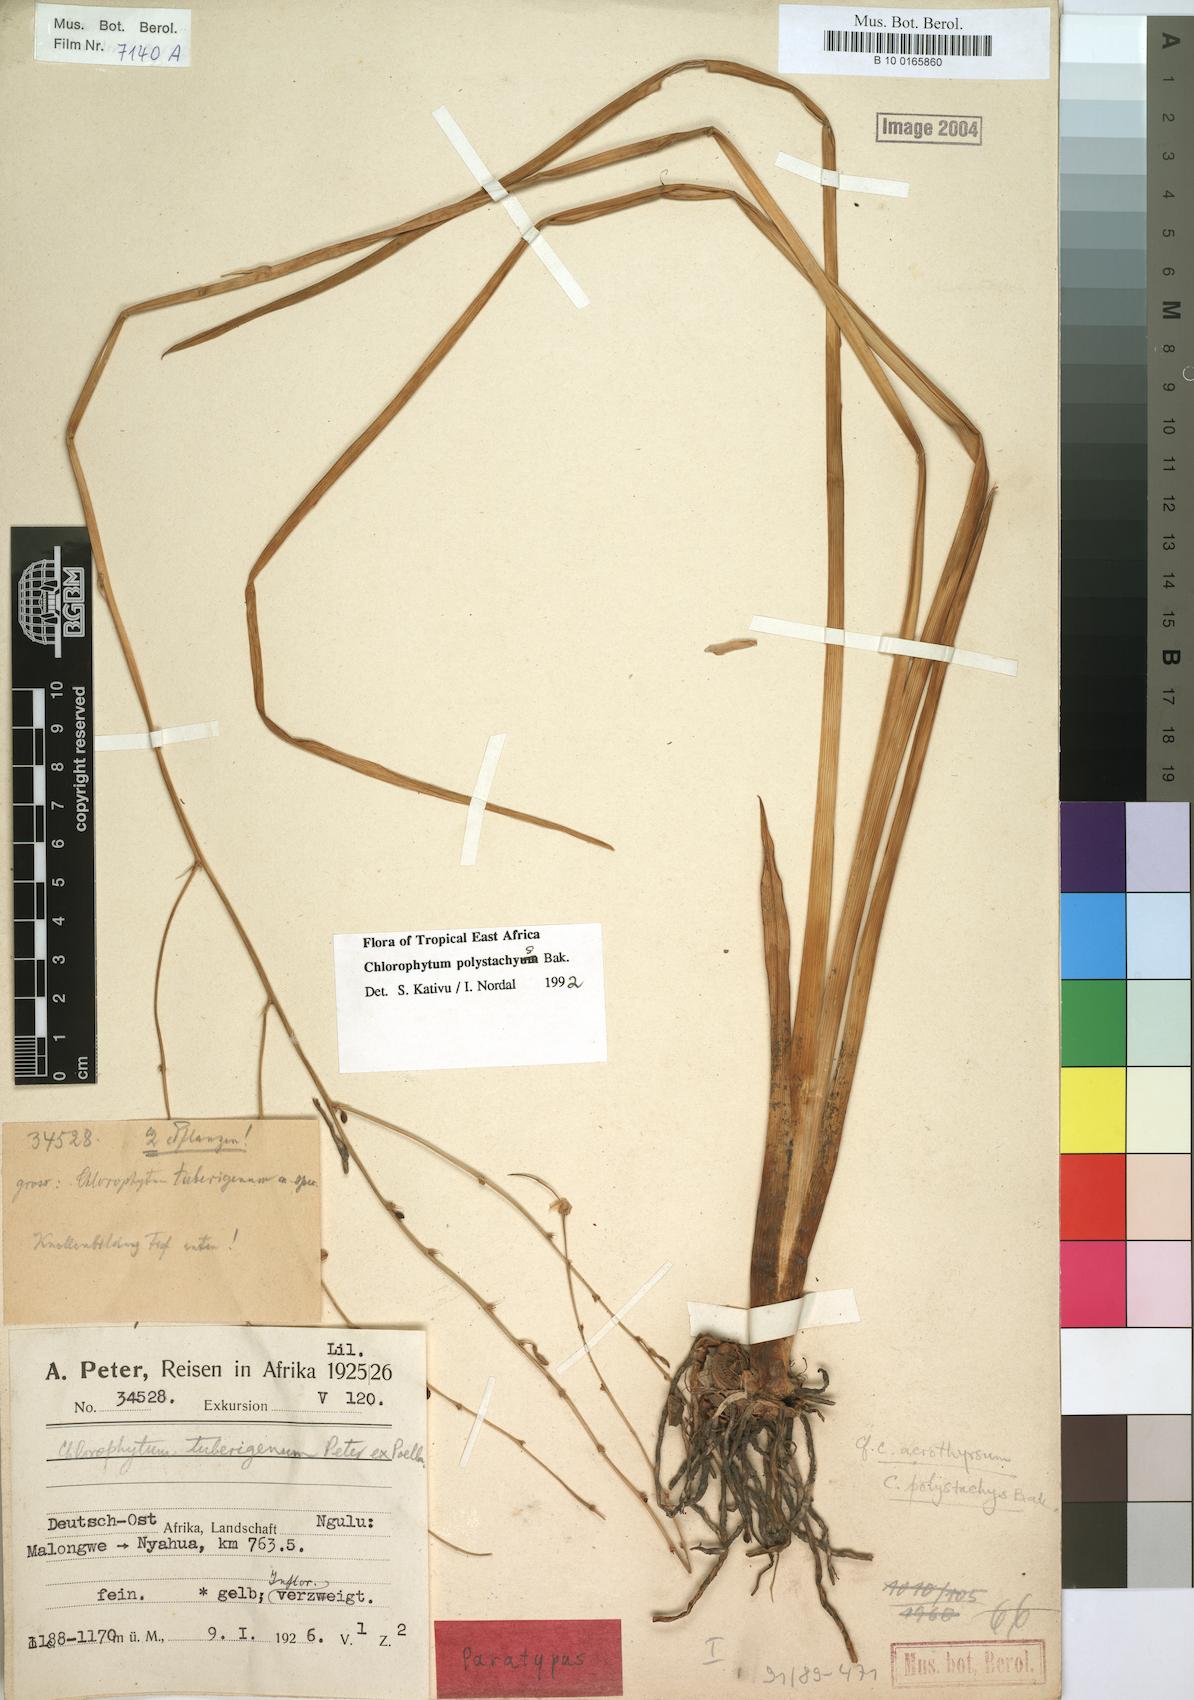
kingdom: Plantae
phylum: Tracheophyta
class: Liliopsida
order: Asparagales
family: Asparagaceae
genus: Chlorophytum
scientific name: Chlorophytum polystachys
